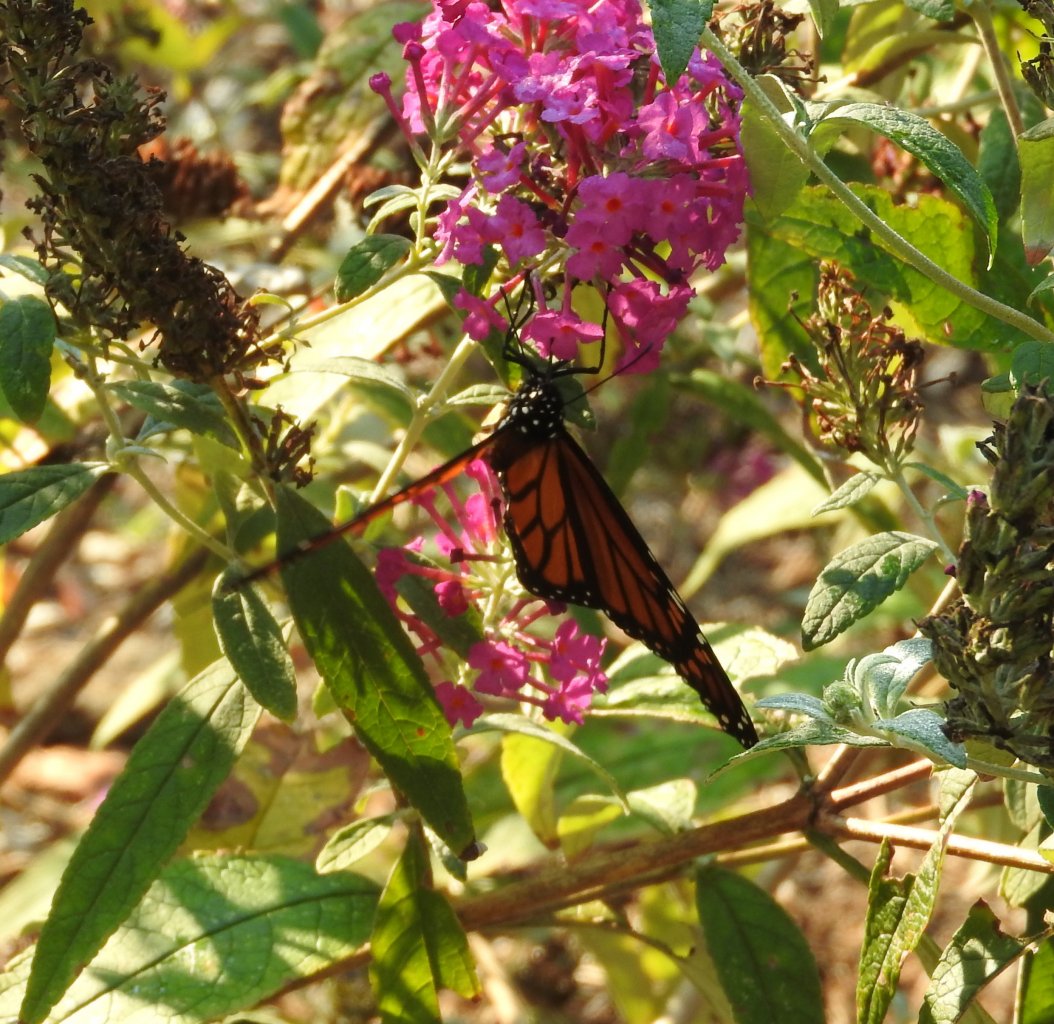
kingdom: Animalia
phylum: Arthropoda
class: Insecta
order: Lepidoptera
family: Nymphalidae
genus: Danaus
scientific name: Danaus plexippus
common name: Monarch
